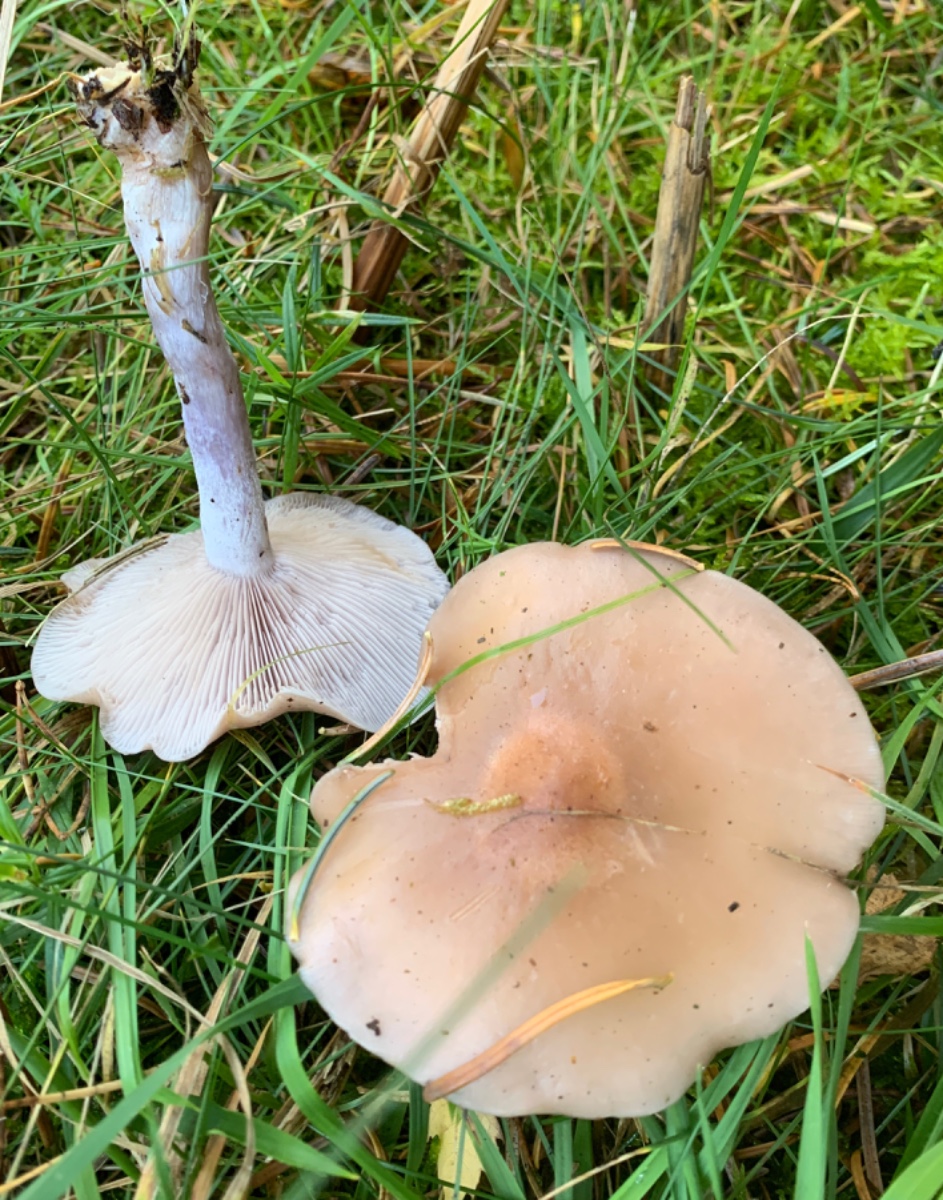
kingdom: Fungi
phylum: Basidiomycota
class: Agaricomycetes
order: Agaricales
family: Tricholomataceae
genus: Lepista
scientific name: Lepista personata
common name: bleg hekseringshat
